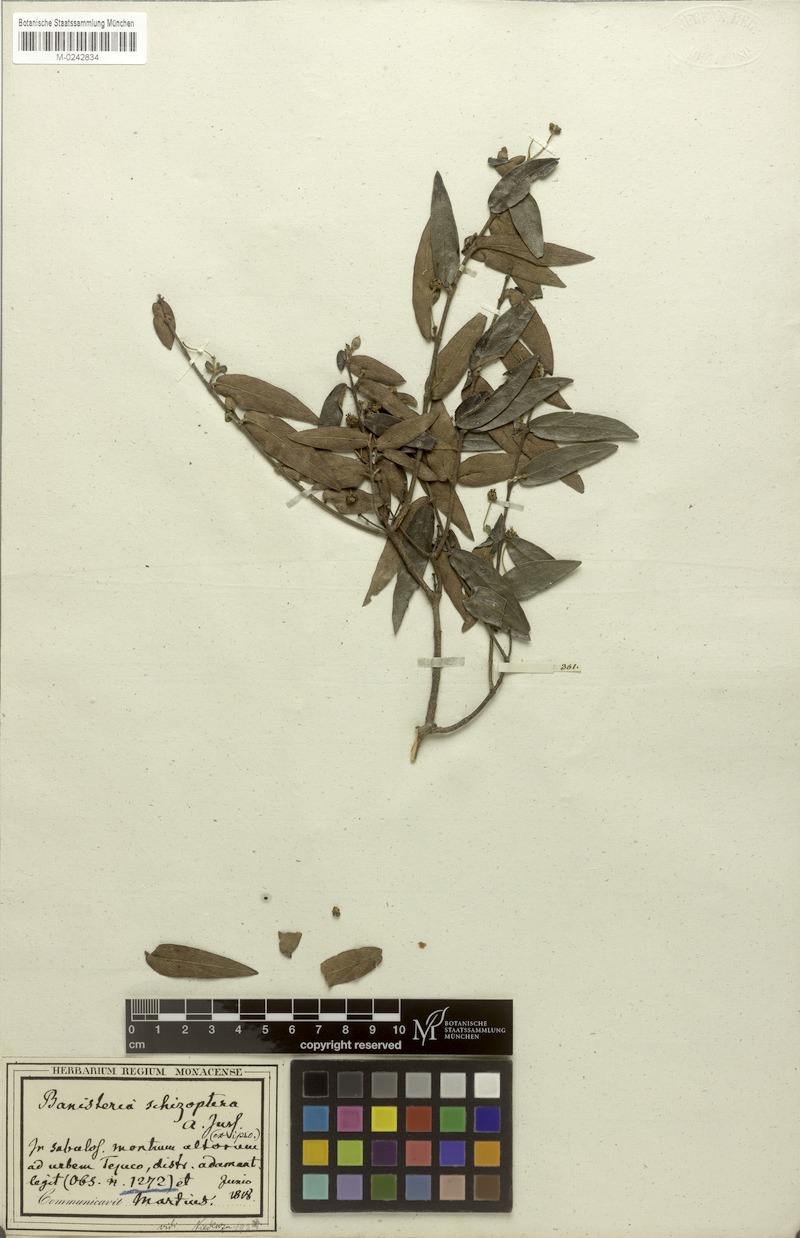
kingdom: Plantae
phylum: Tracheophyta
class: Magnoliopsida
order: Malpighiales
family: Malpighiaceae
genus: Banisteriopsis
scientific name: Banisteriopsis schizoptera
